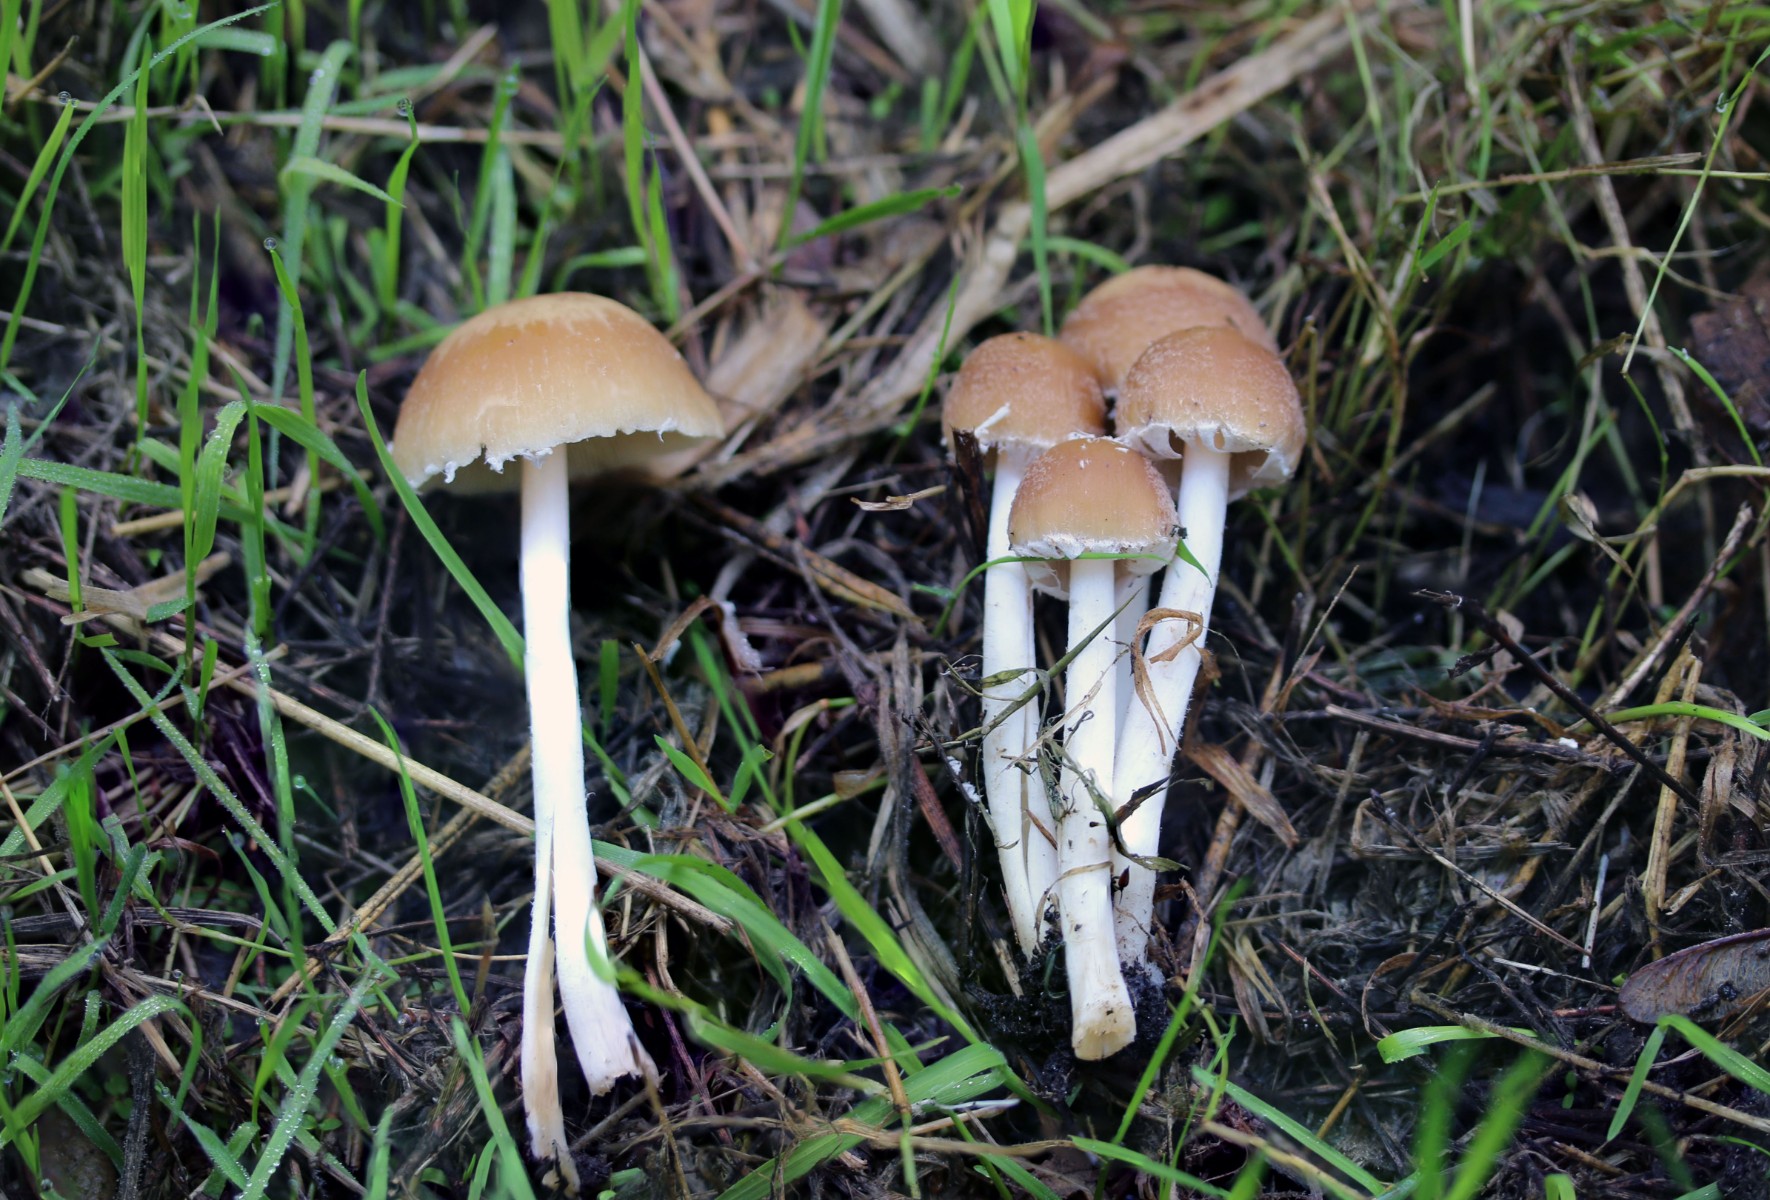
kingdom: Fungi
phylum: Basidiomycota
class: Agaricomycetes
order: Agaricales
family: Psathyrellaceae
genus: Candolleomyces
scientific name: Candolleomyces candolleanus
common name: Candolles mørkhat
